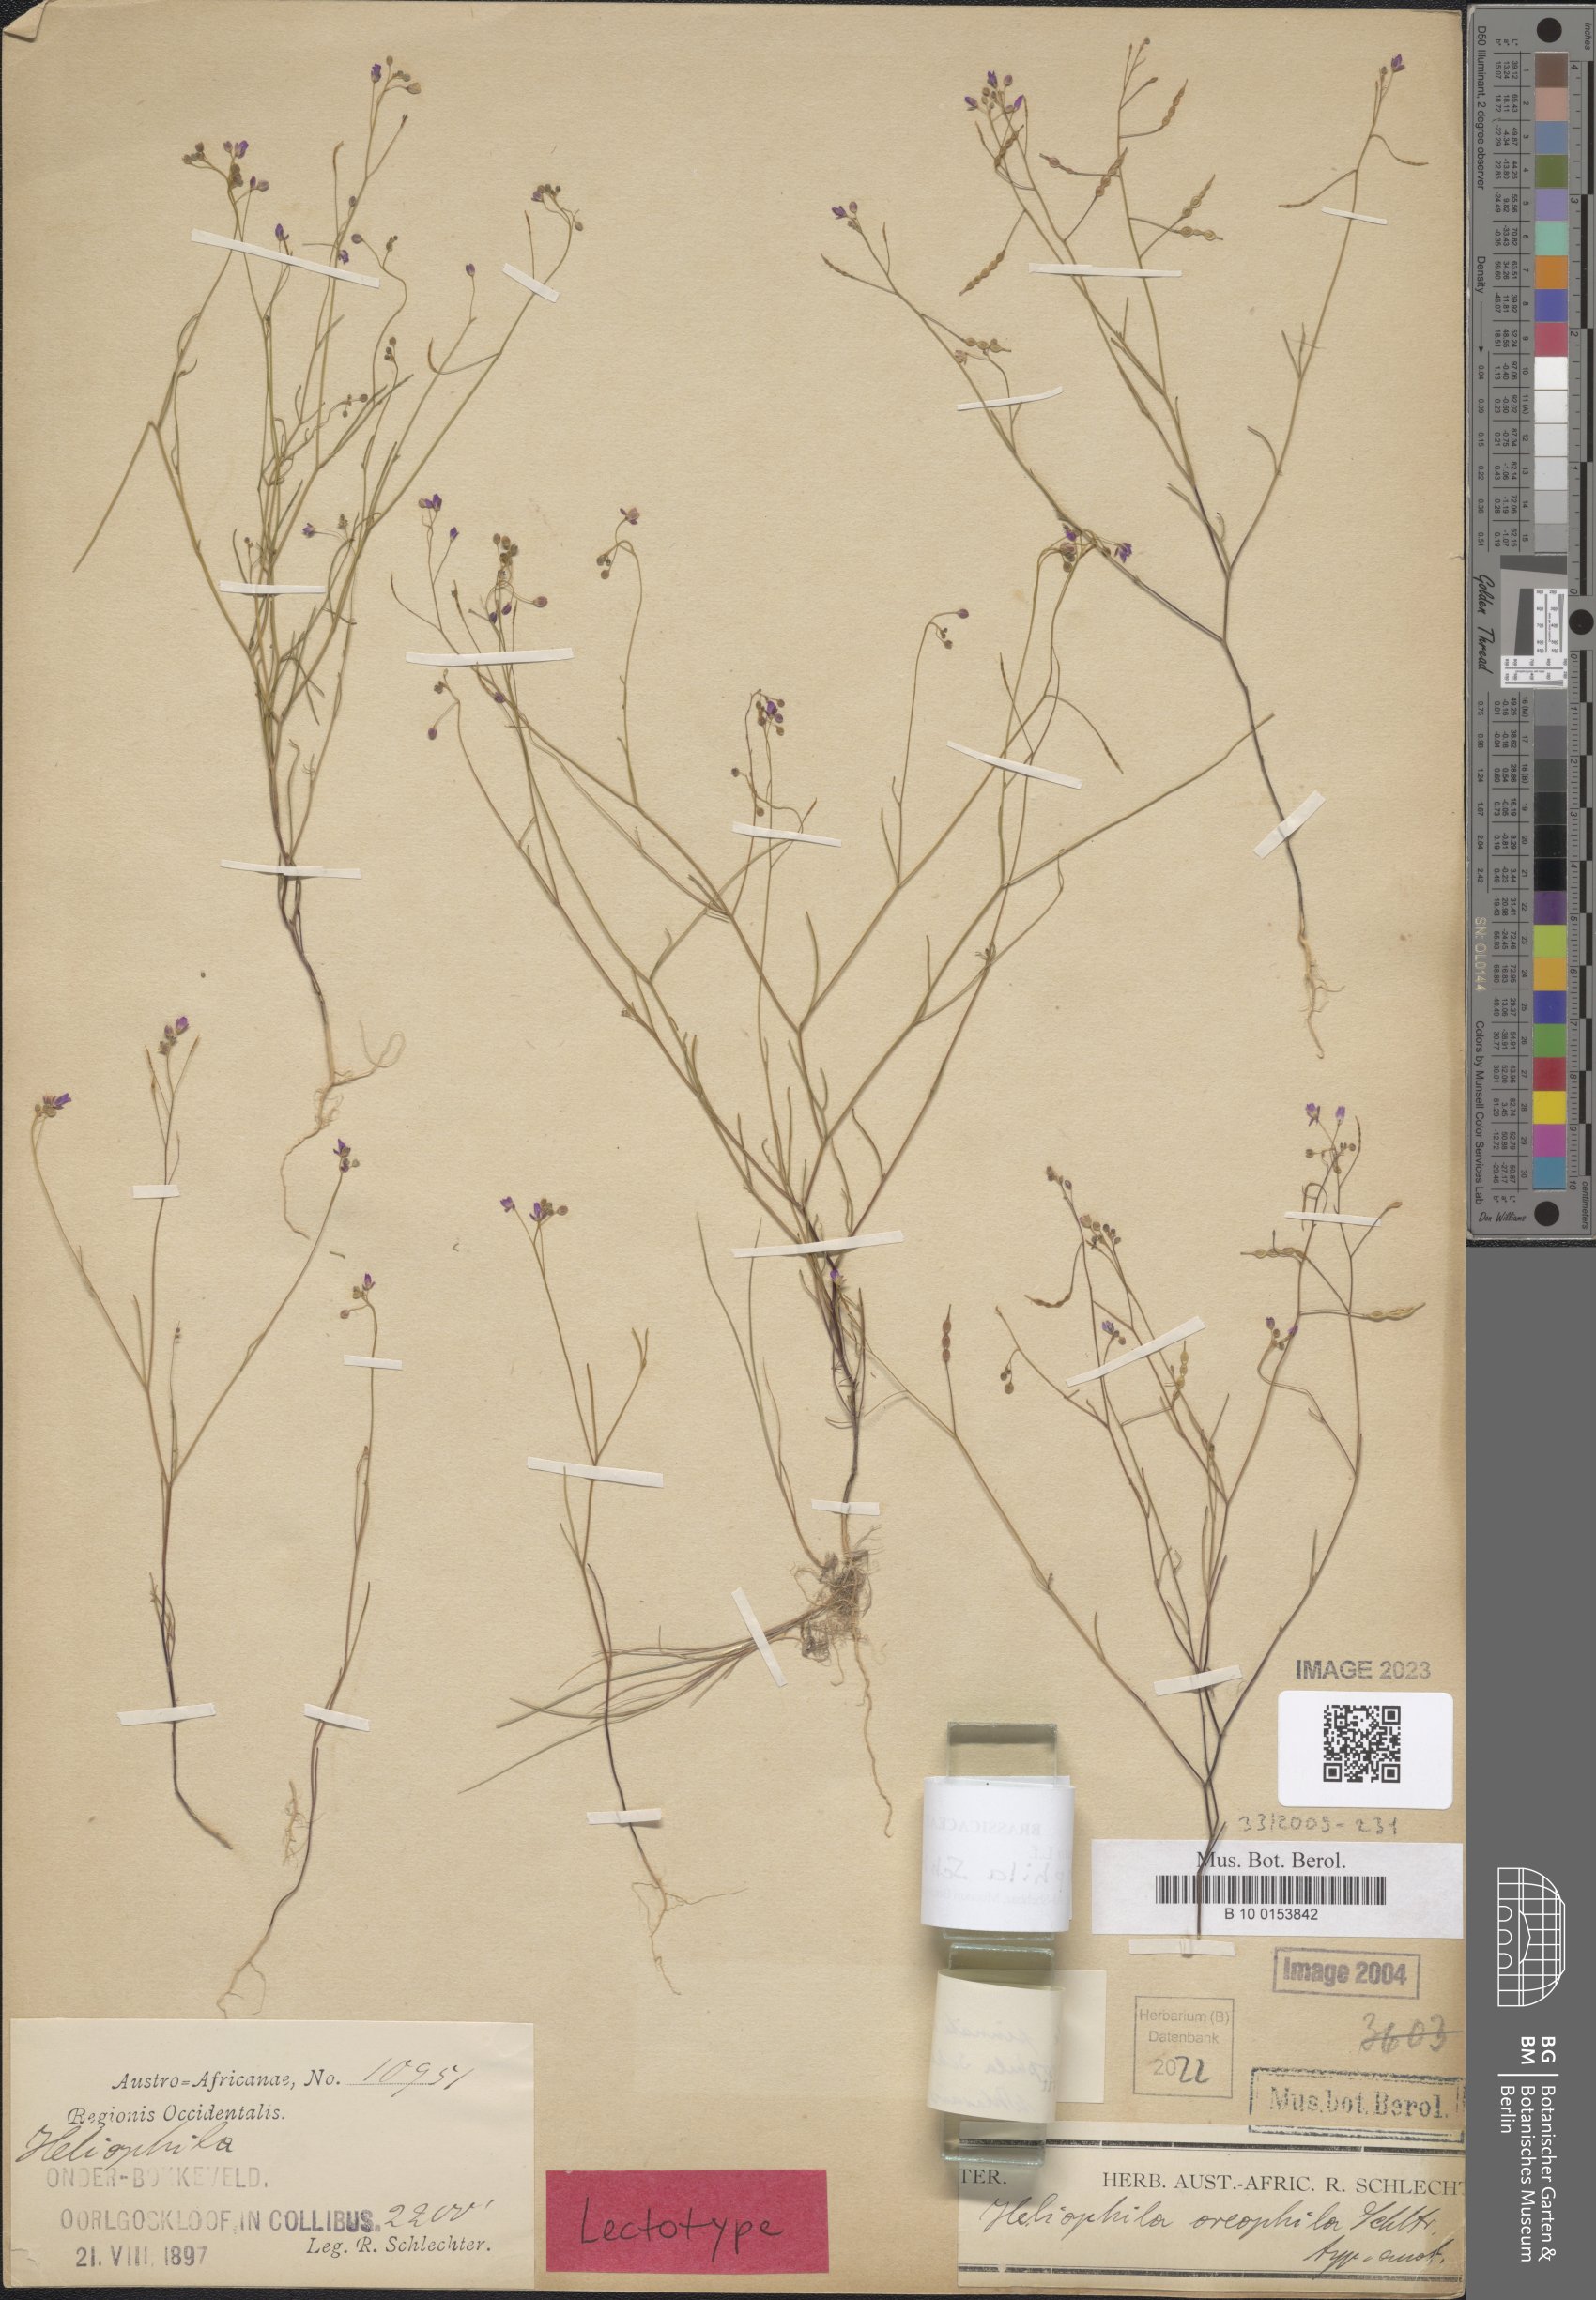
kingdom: Plantae
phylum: Tracheophyta
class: Magnoliopsida
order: Brassicales
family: Brassicaceae
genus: Heliophila
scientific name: Heliophila pinnata
